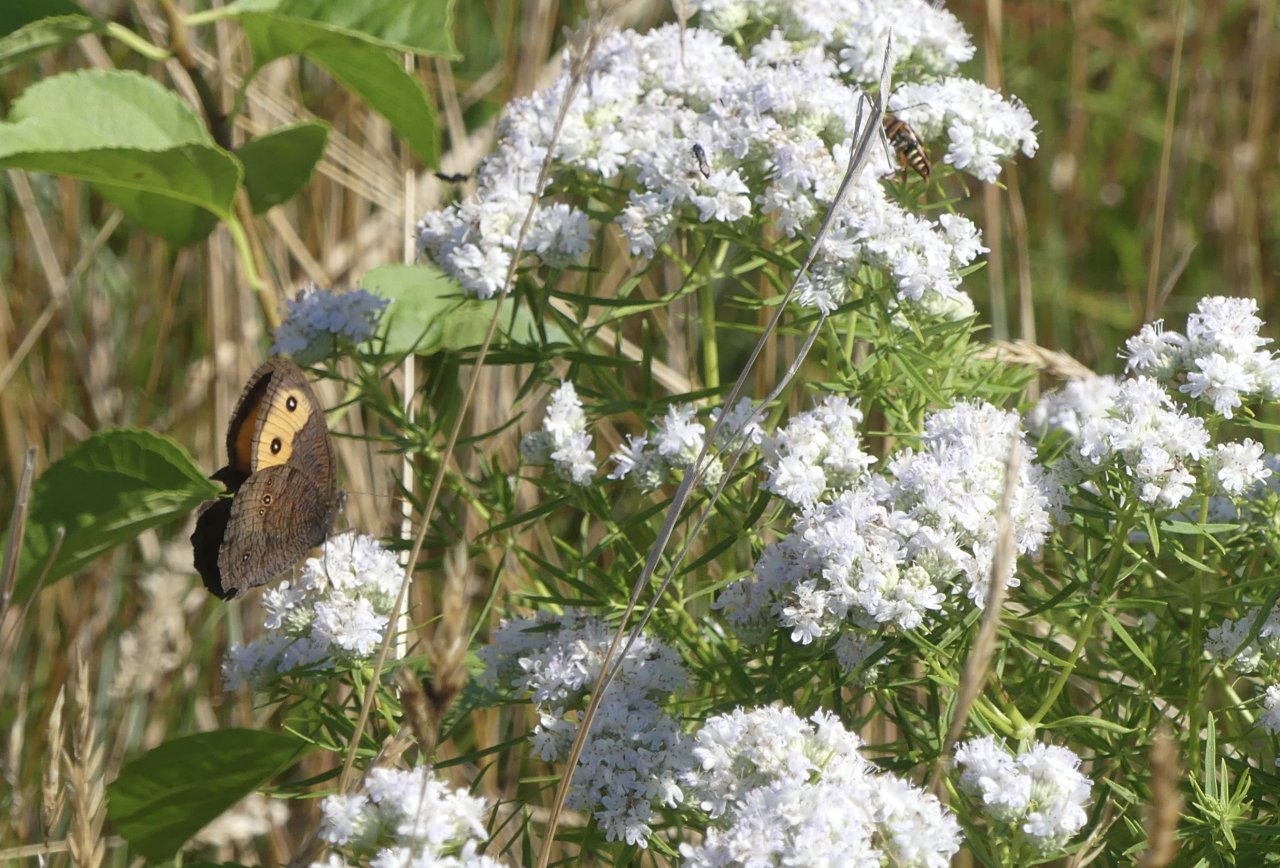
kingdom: Animalia
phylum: Arthropoda
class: Insecta
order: Lepidoptera
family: Nymphalidae
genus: Cercyonis
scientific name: Cercyonis pegala
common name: Common Wood-Nymph
